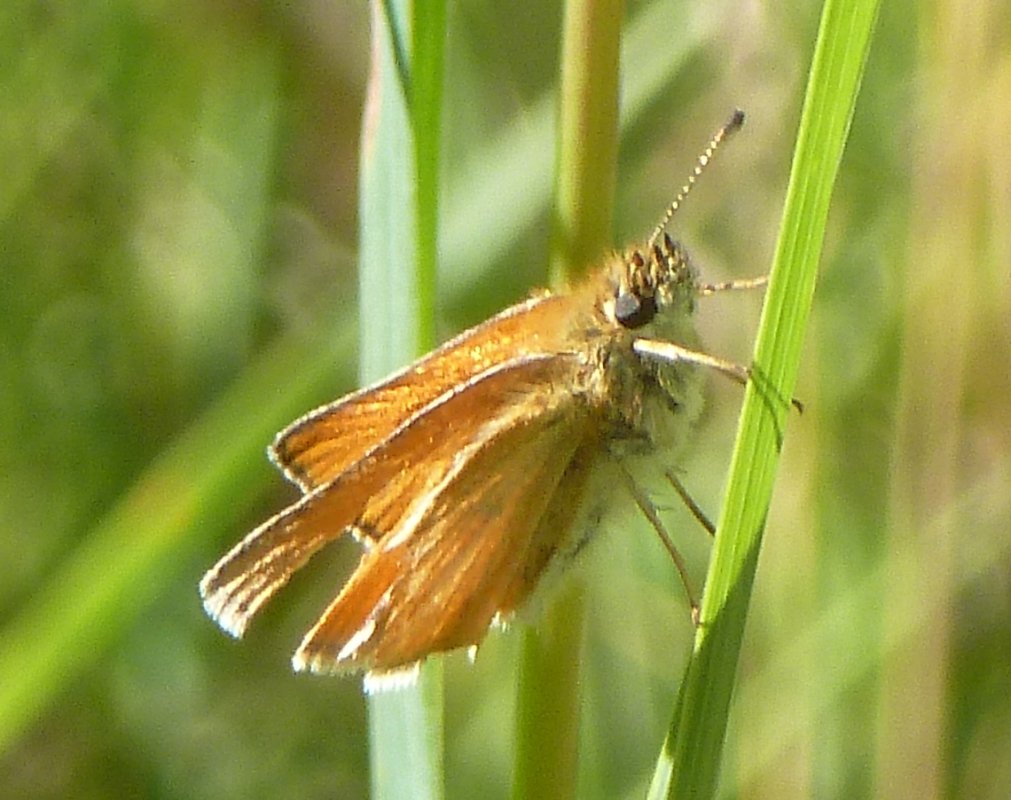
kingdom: Animalia
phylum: Arthropoda
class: Insecta
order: Lepidoptera
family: Hesperiidae
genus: Thymelicus
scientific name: Thymelicus lineola
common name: European Skipper
